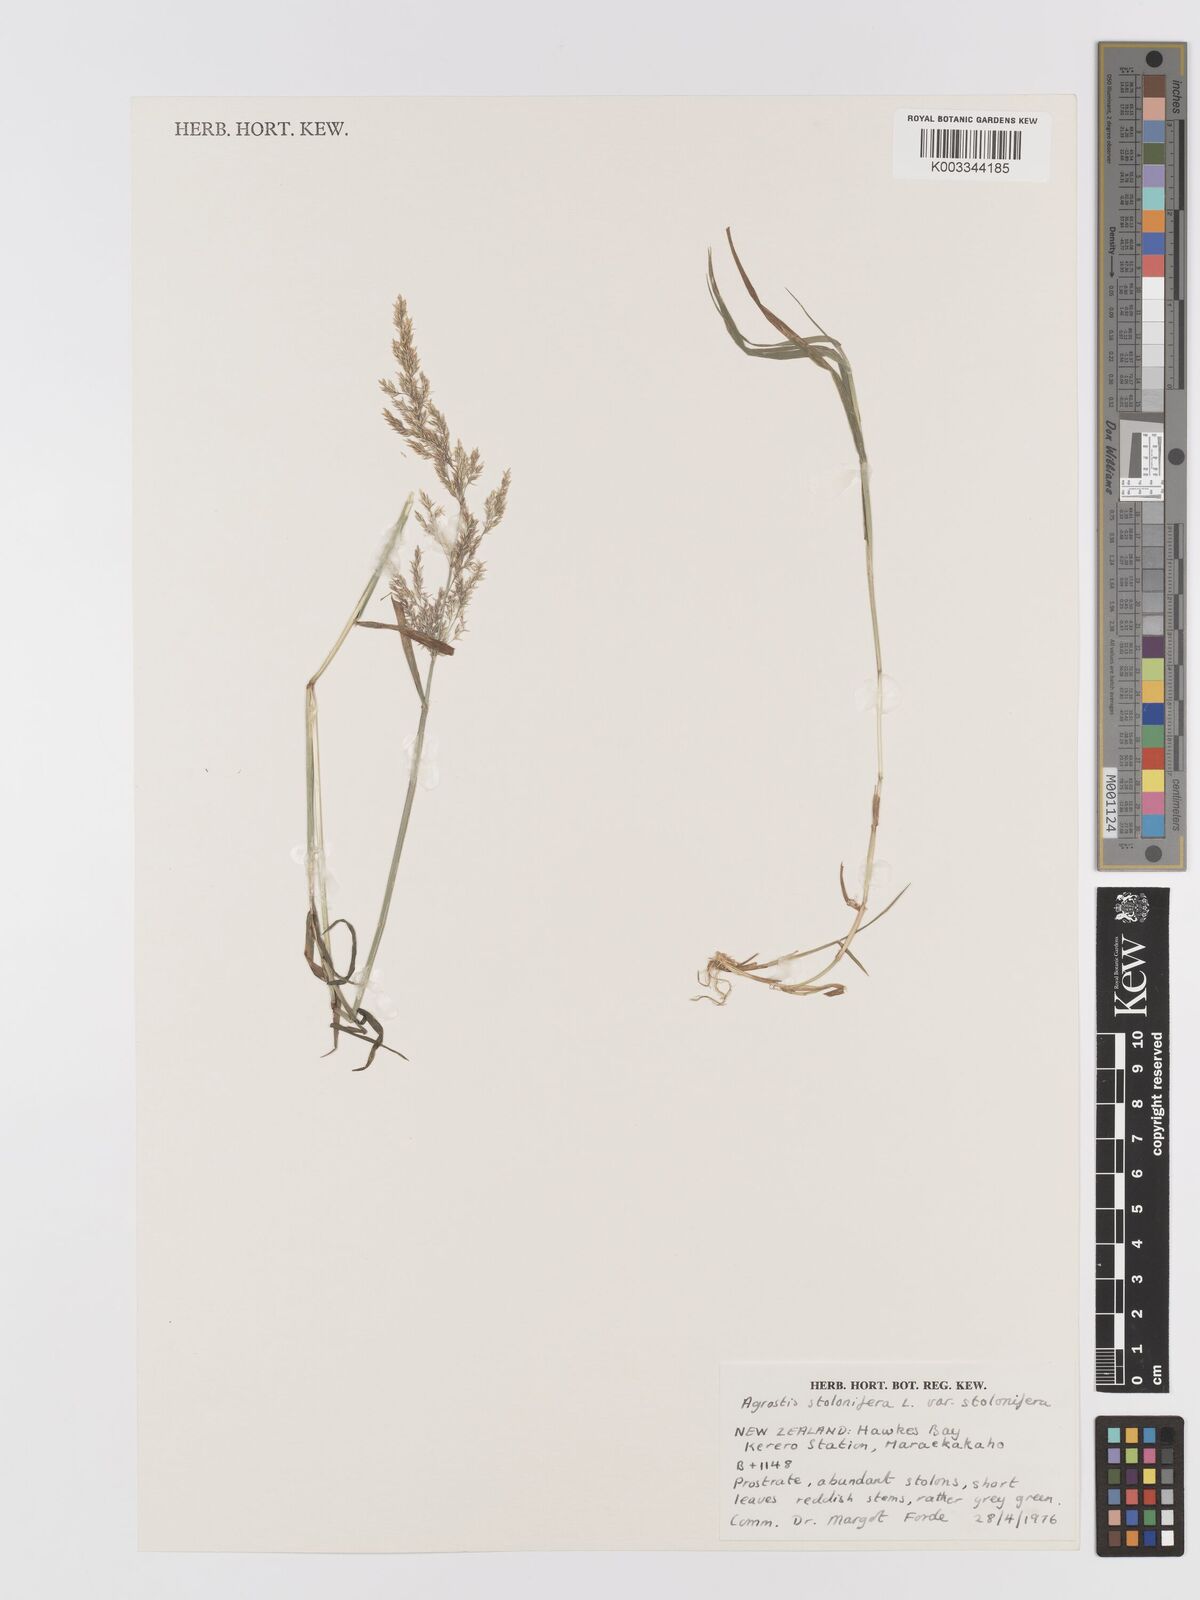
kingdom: Plantae
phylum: Tracheophyta
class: Liliopsida
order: Poales
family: Poaceae
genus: Agrostis
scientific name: Agrostis stolonifera
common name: Creeping bentgrass
